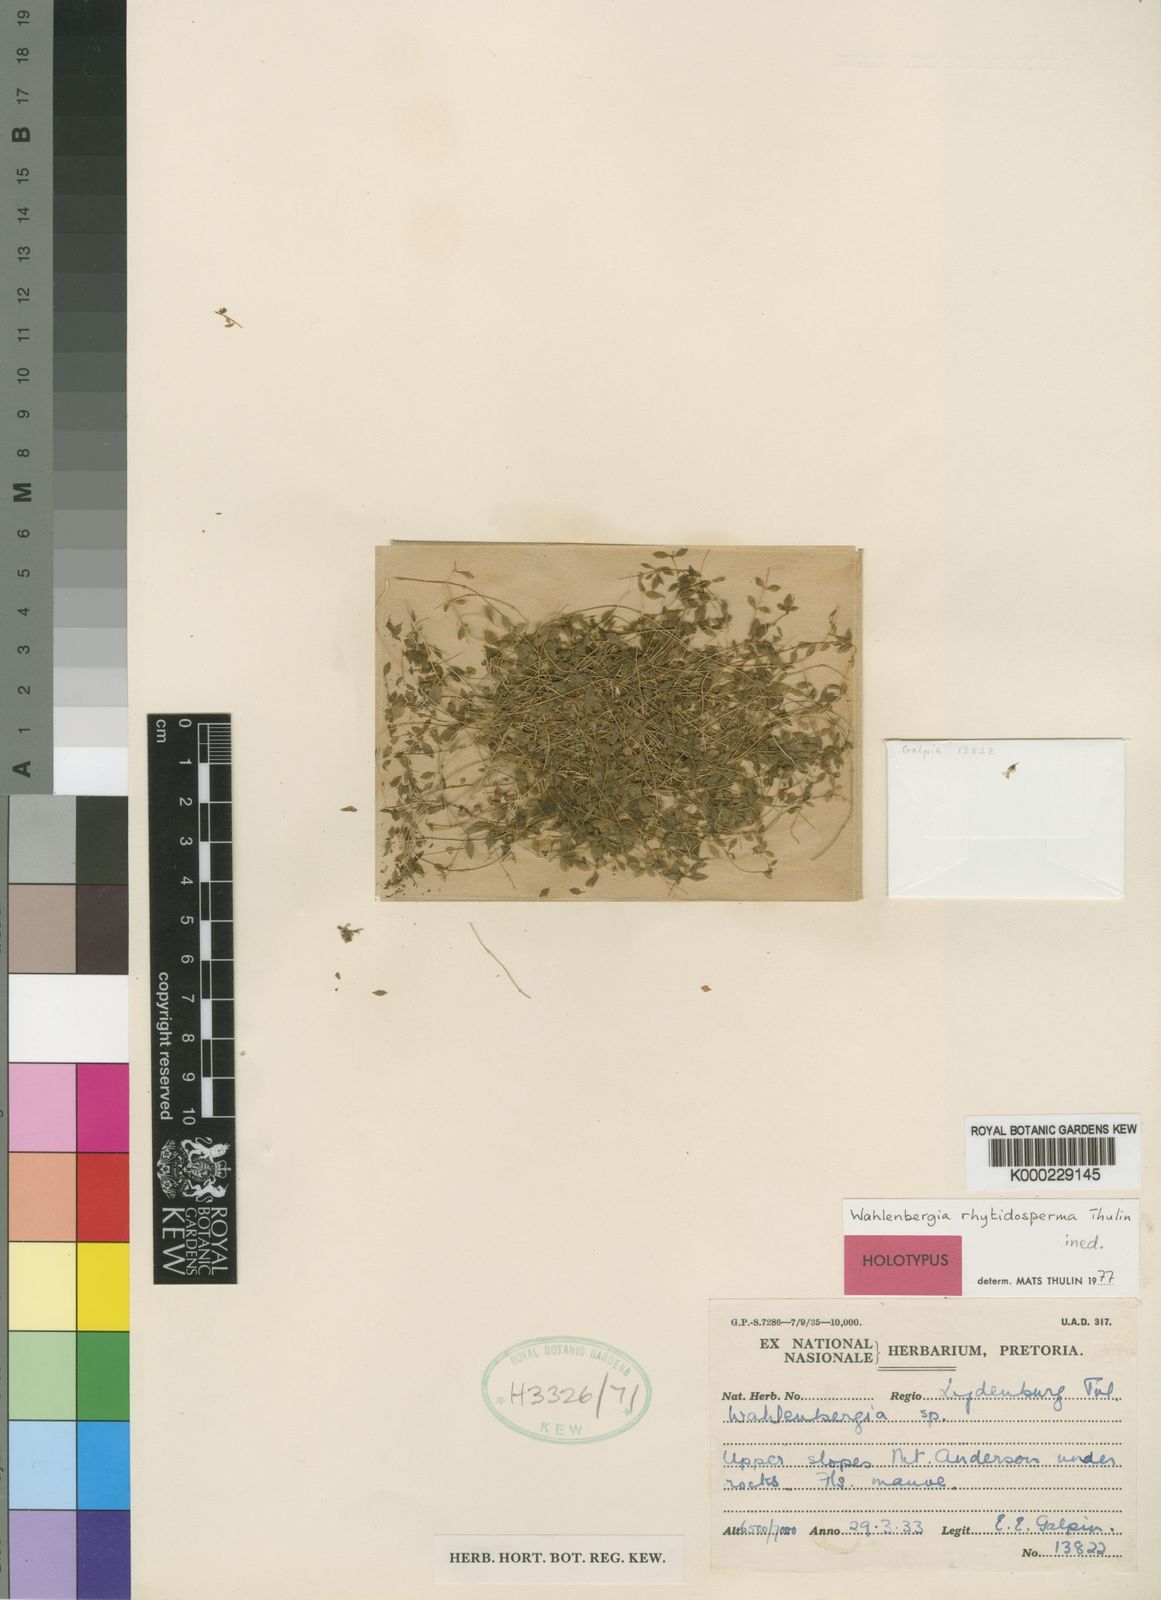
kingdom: Plantae
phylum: Tracheophyta
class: Magnoliopsida
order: Asterales
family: Campanulaceae
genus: Wahlenbergia
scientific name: Wahlenbergia rhytidosperma
